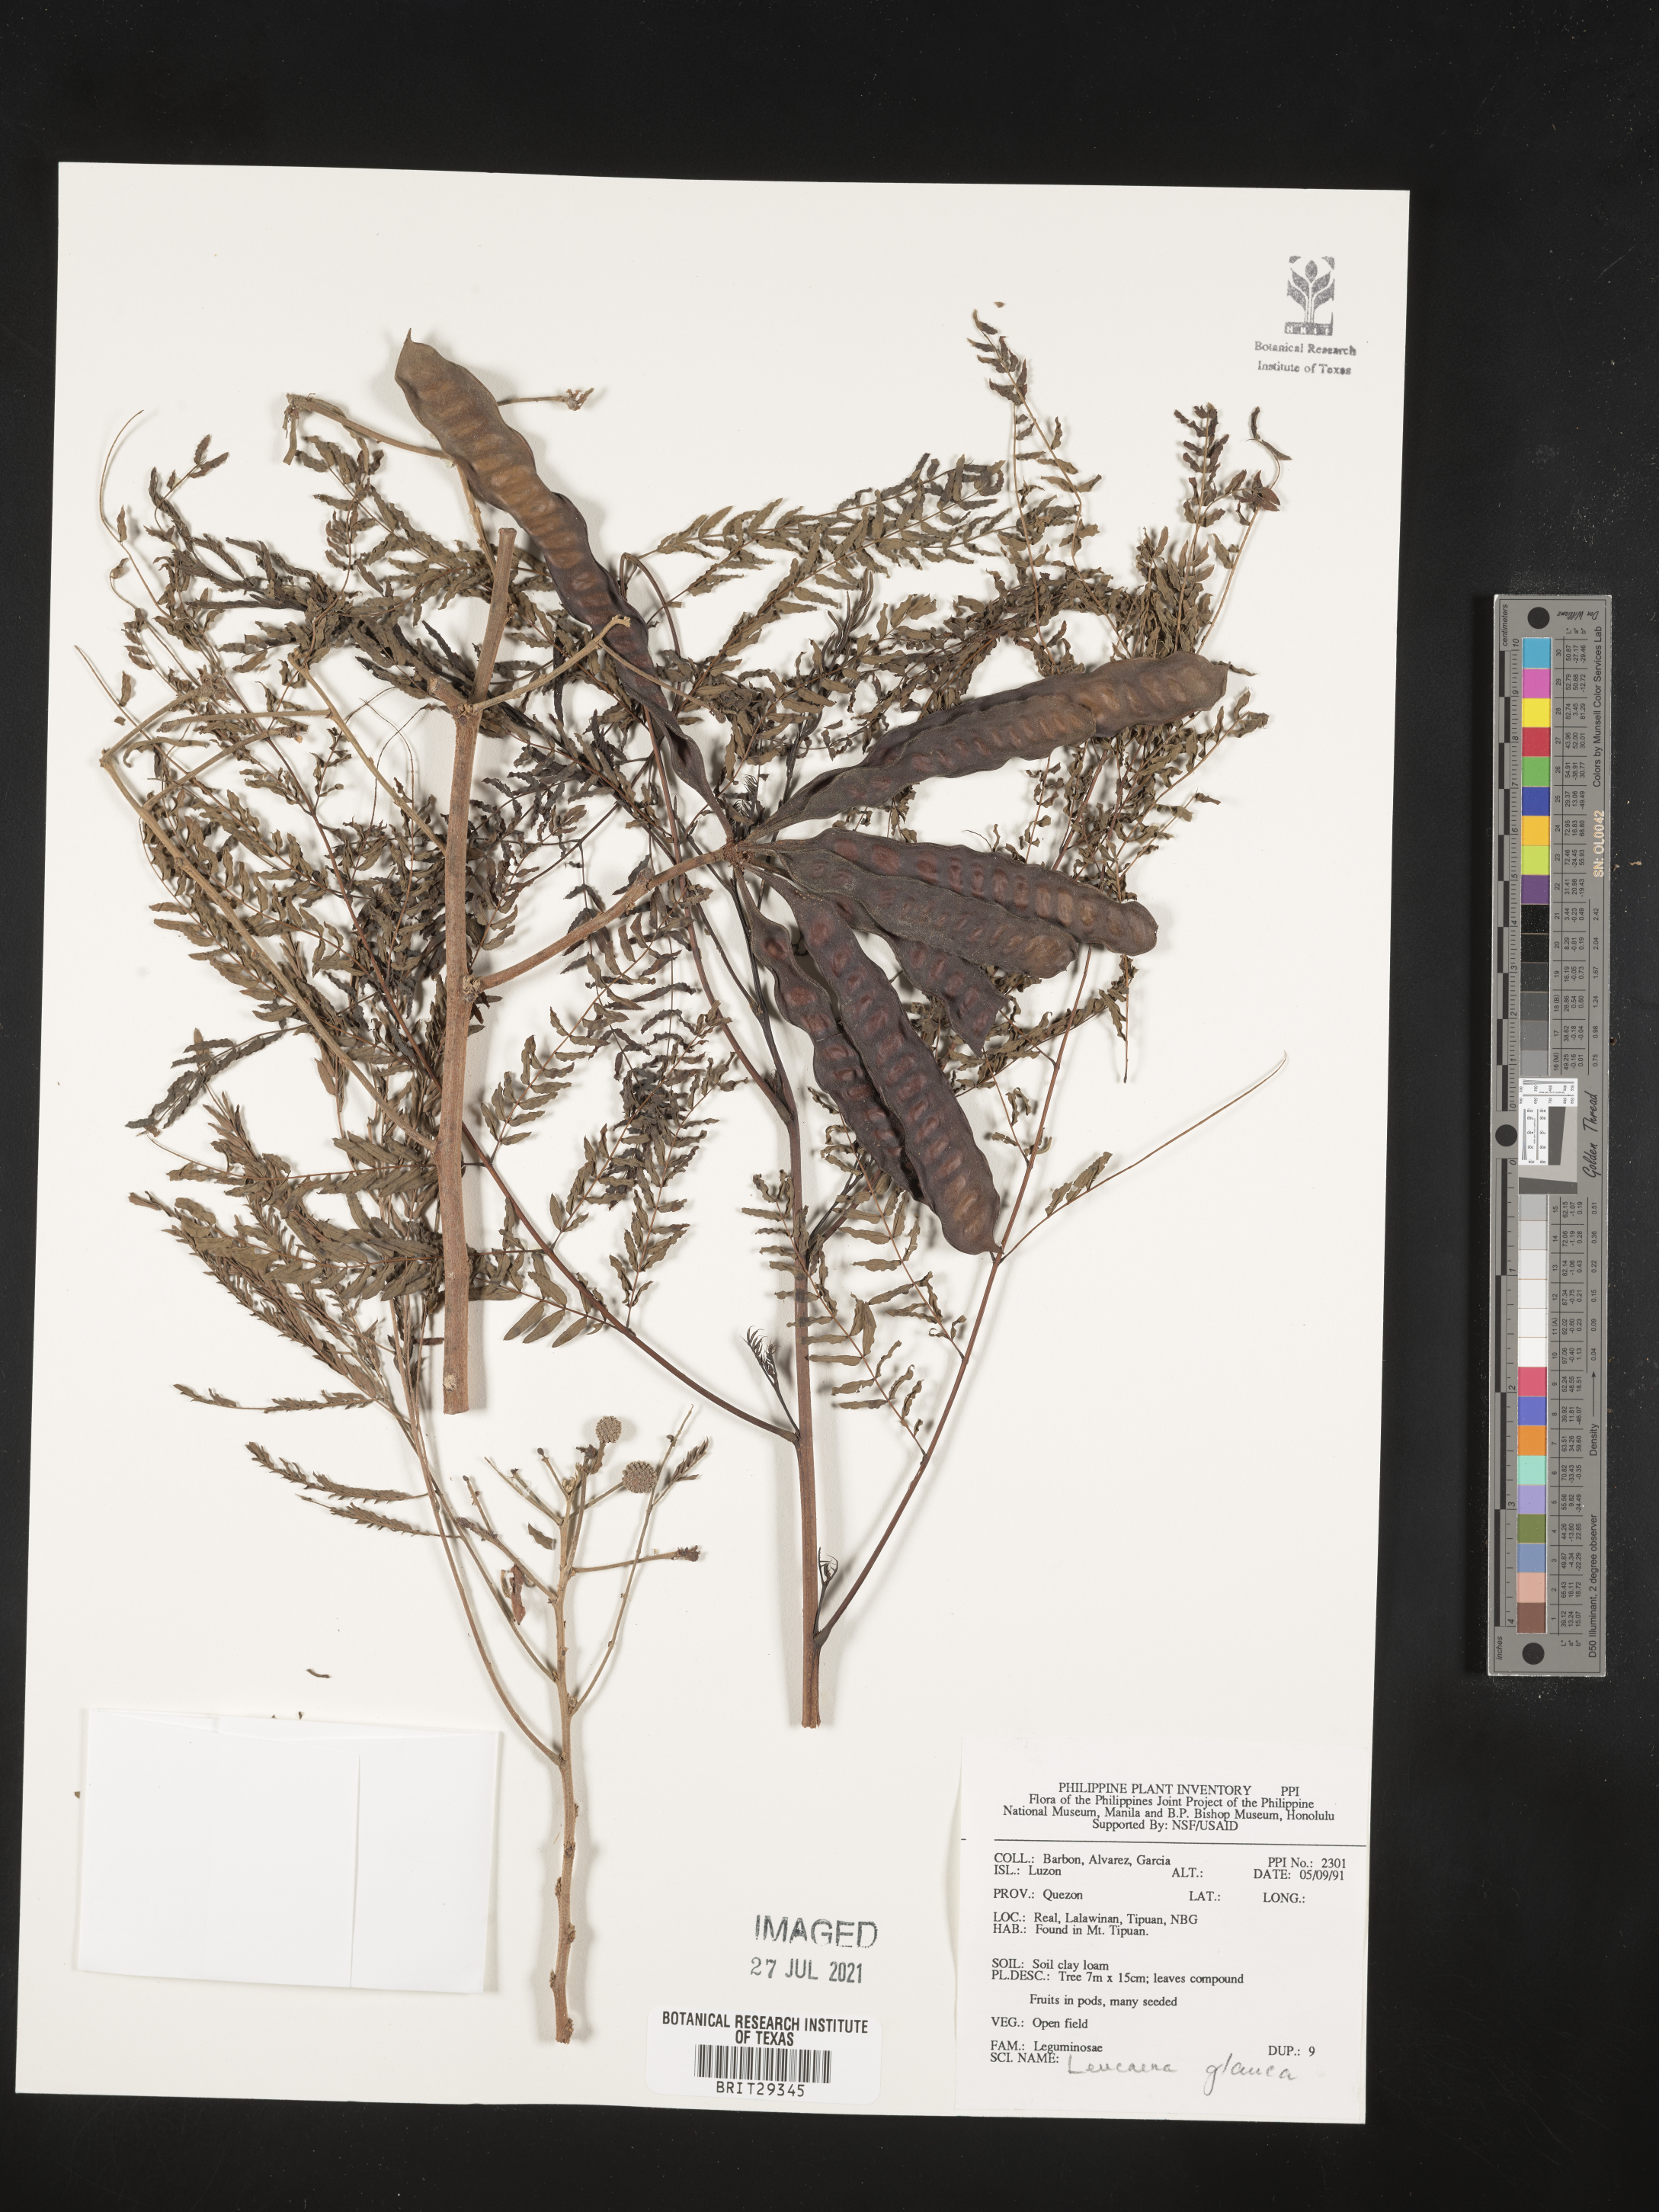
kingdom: Plantae
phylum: Tracheophyta
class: Magnoliopsida
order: Fabales
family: Fabaceae
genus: Acaciella
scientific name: Acaciella glauca
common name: Redwood
